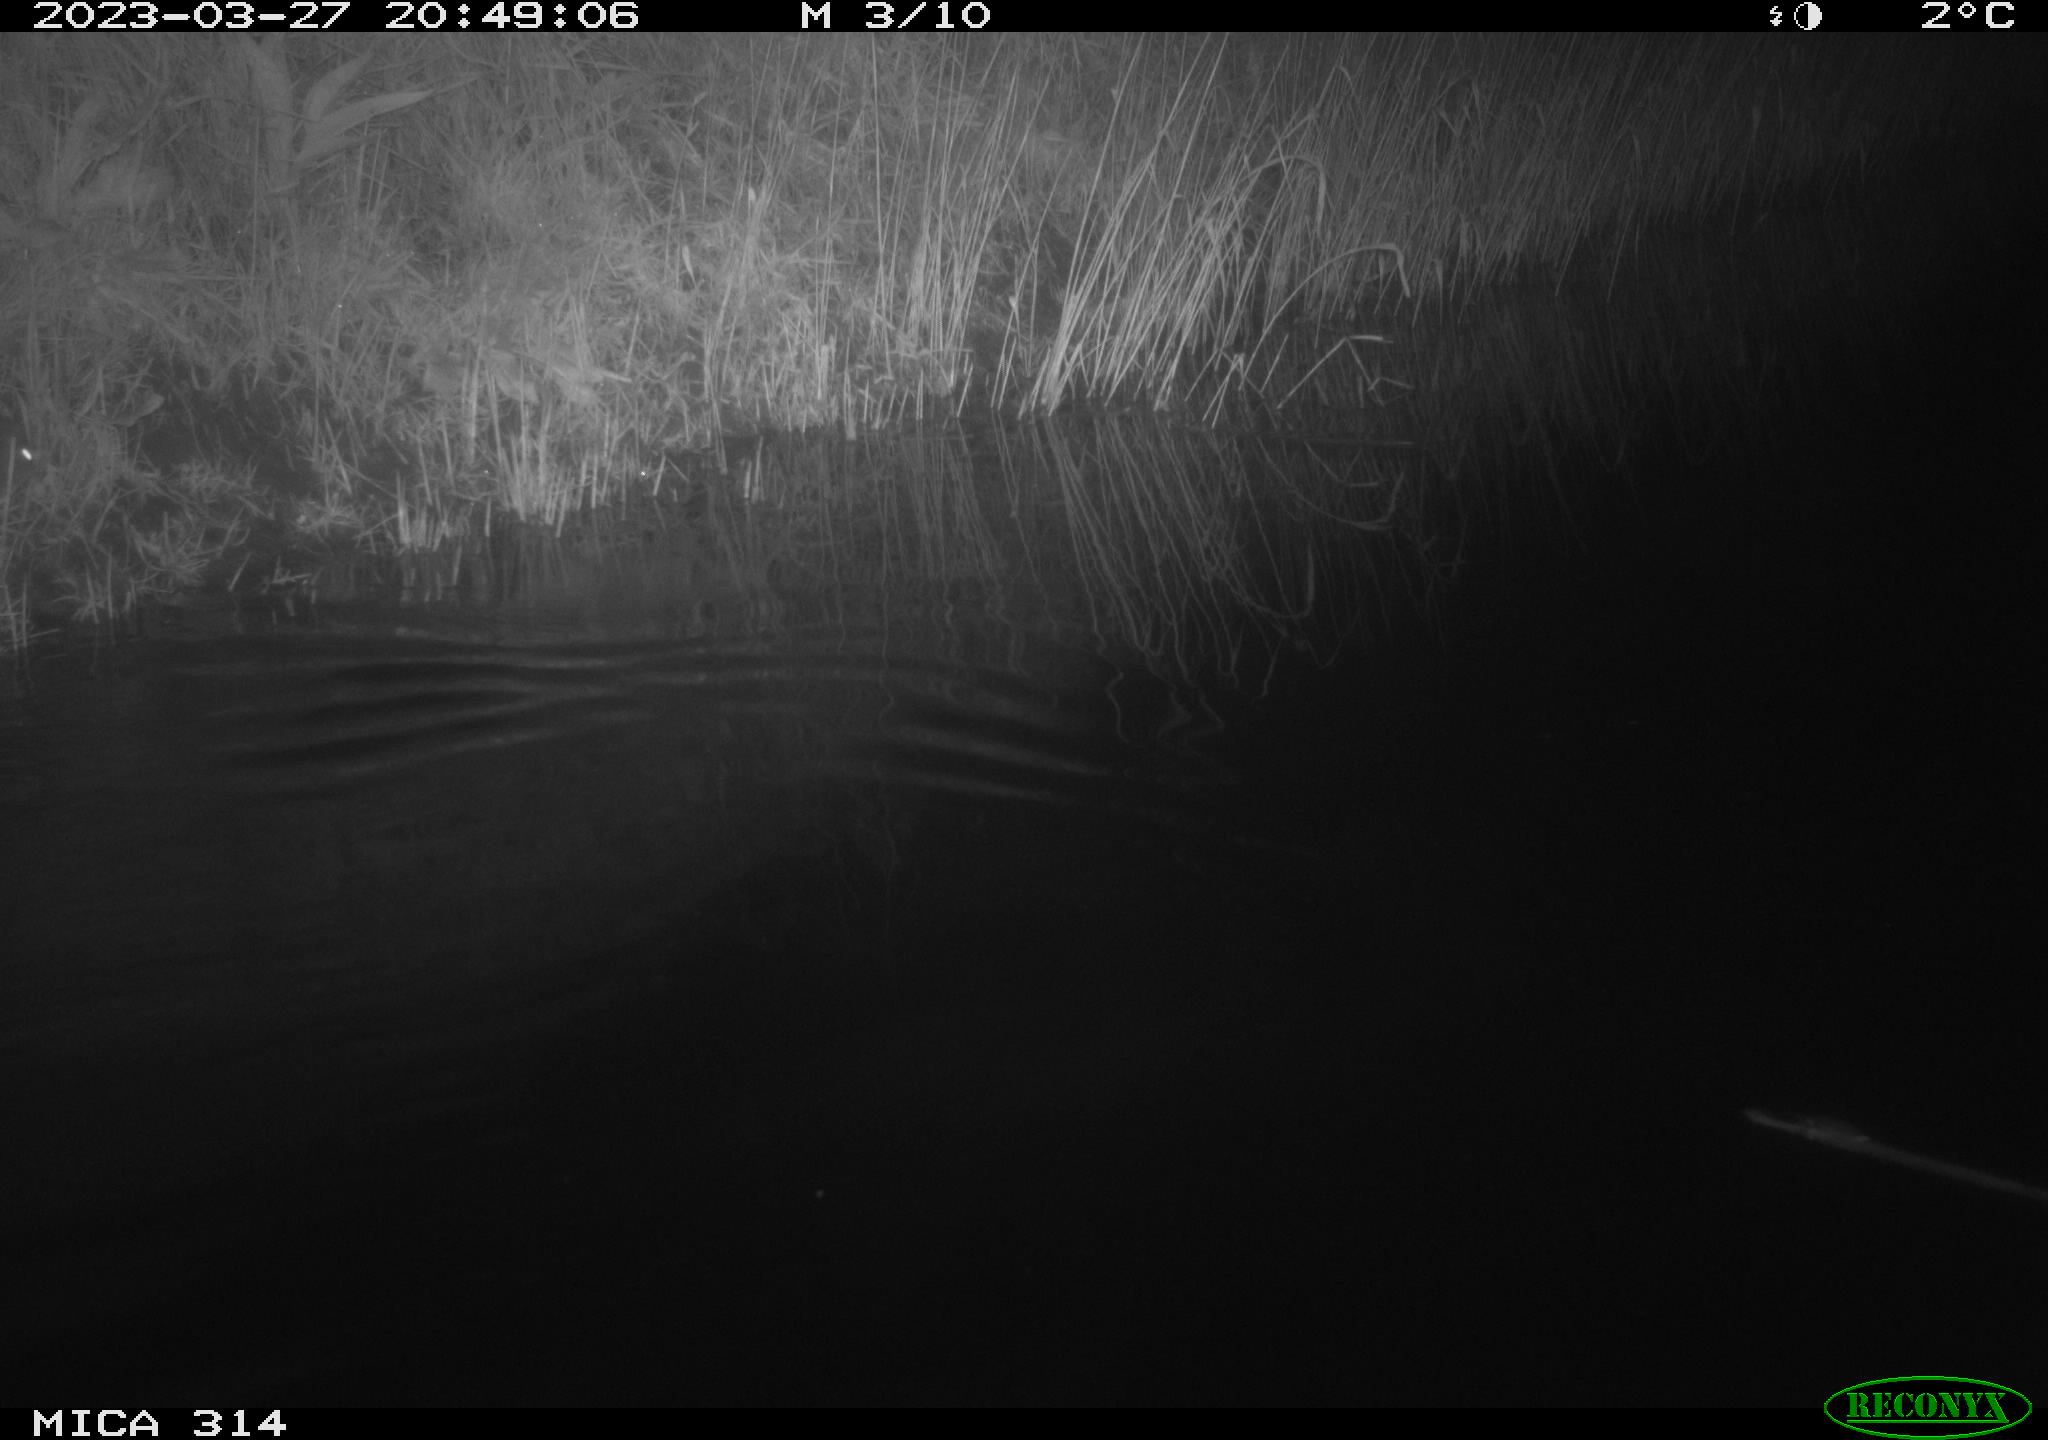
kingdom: Animalia
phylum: Chordata
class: Mammalia
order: Rodentia
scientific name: Rodentia
